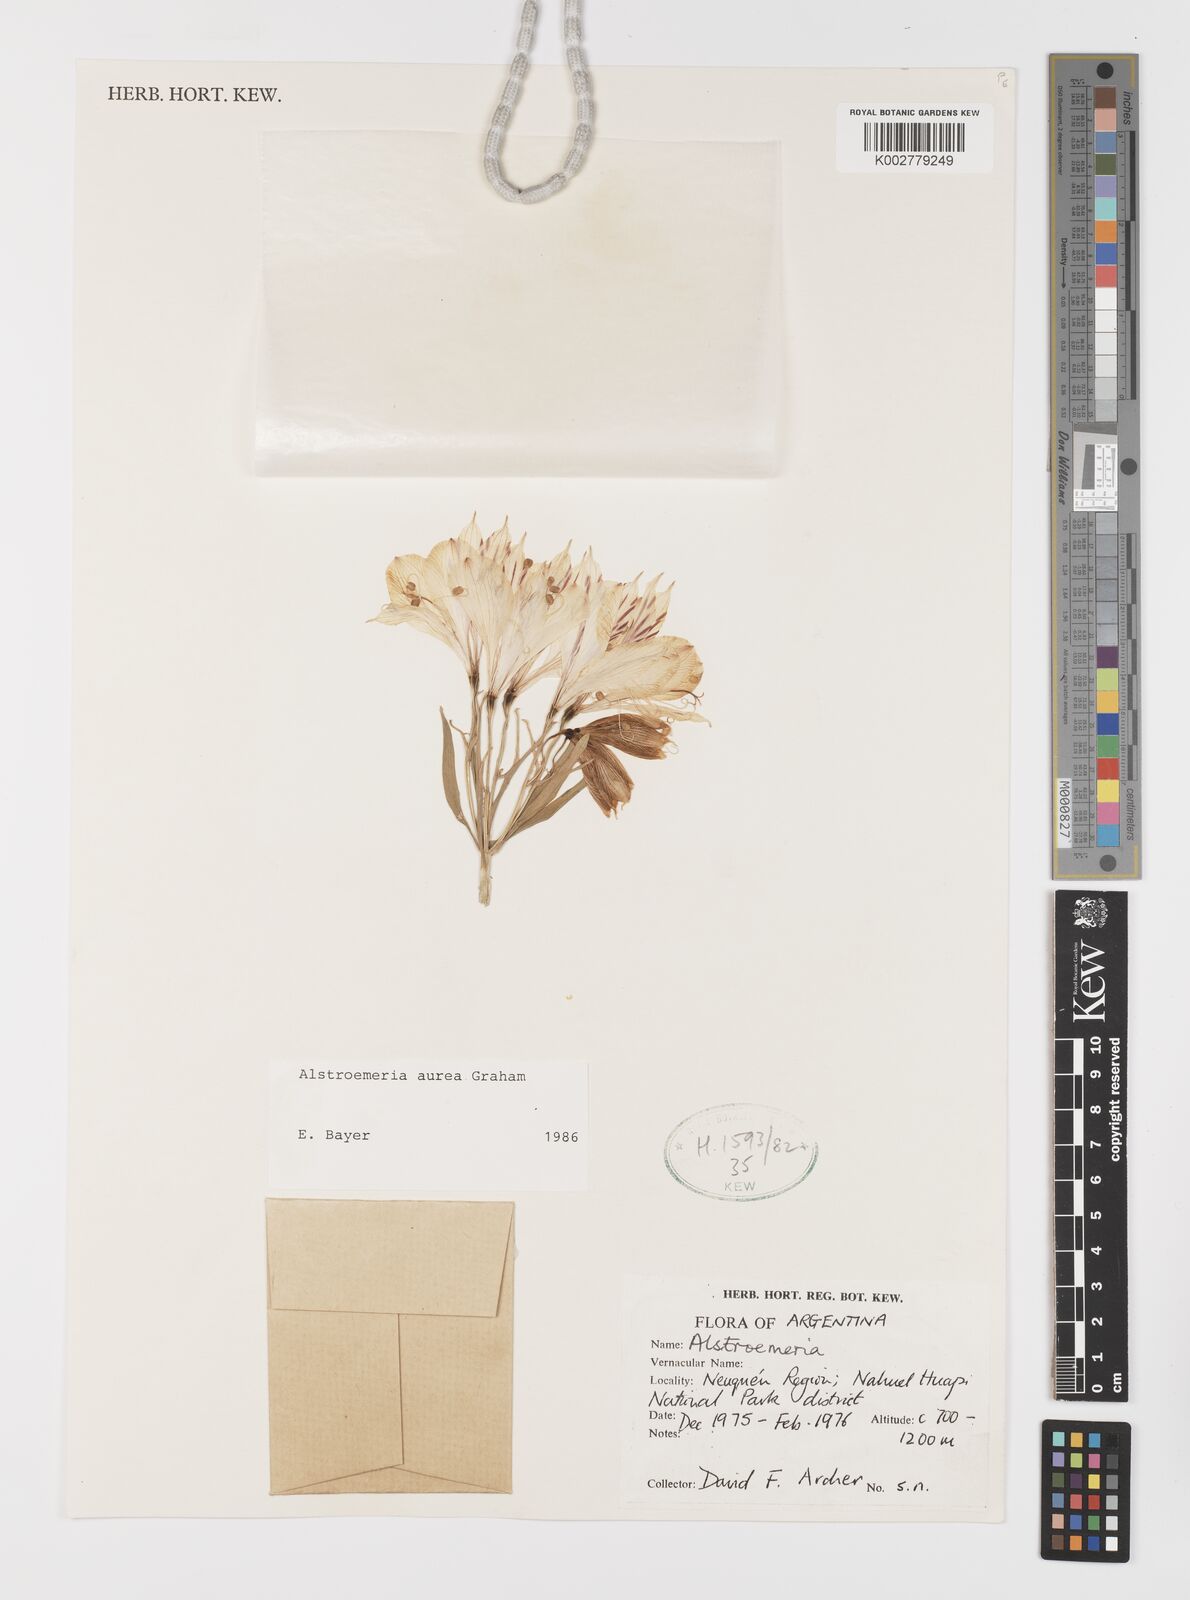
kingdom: Plantae
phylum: Tracheophyta
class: Liliopsida
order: Liliales
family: Alstroemeriaceae
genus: Alstroemeria
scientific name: Alstroemeria aurea
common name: Peruvian lily
